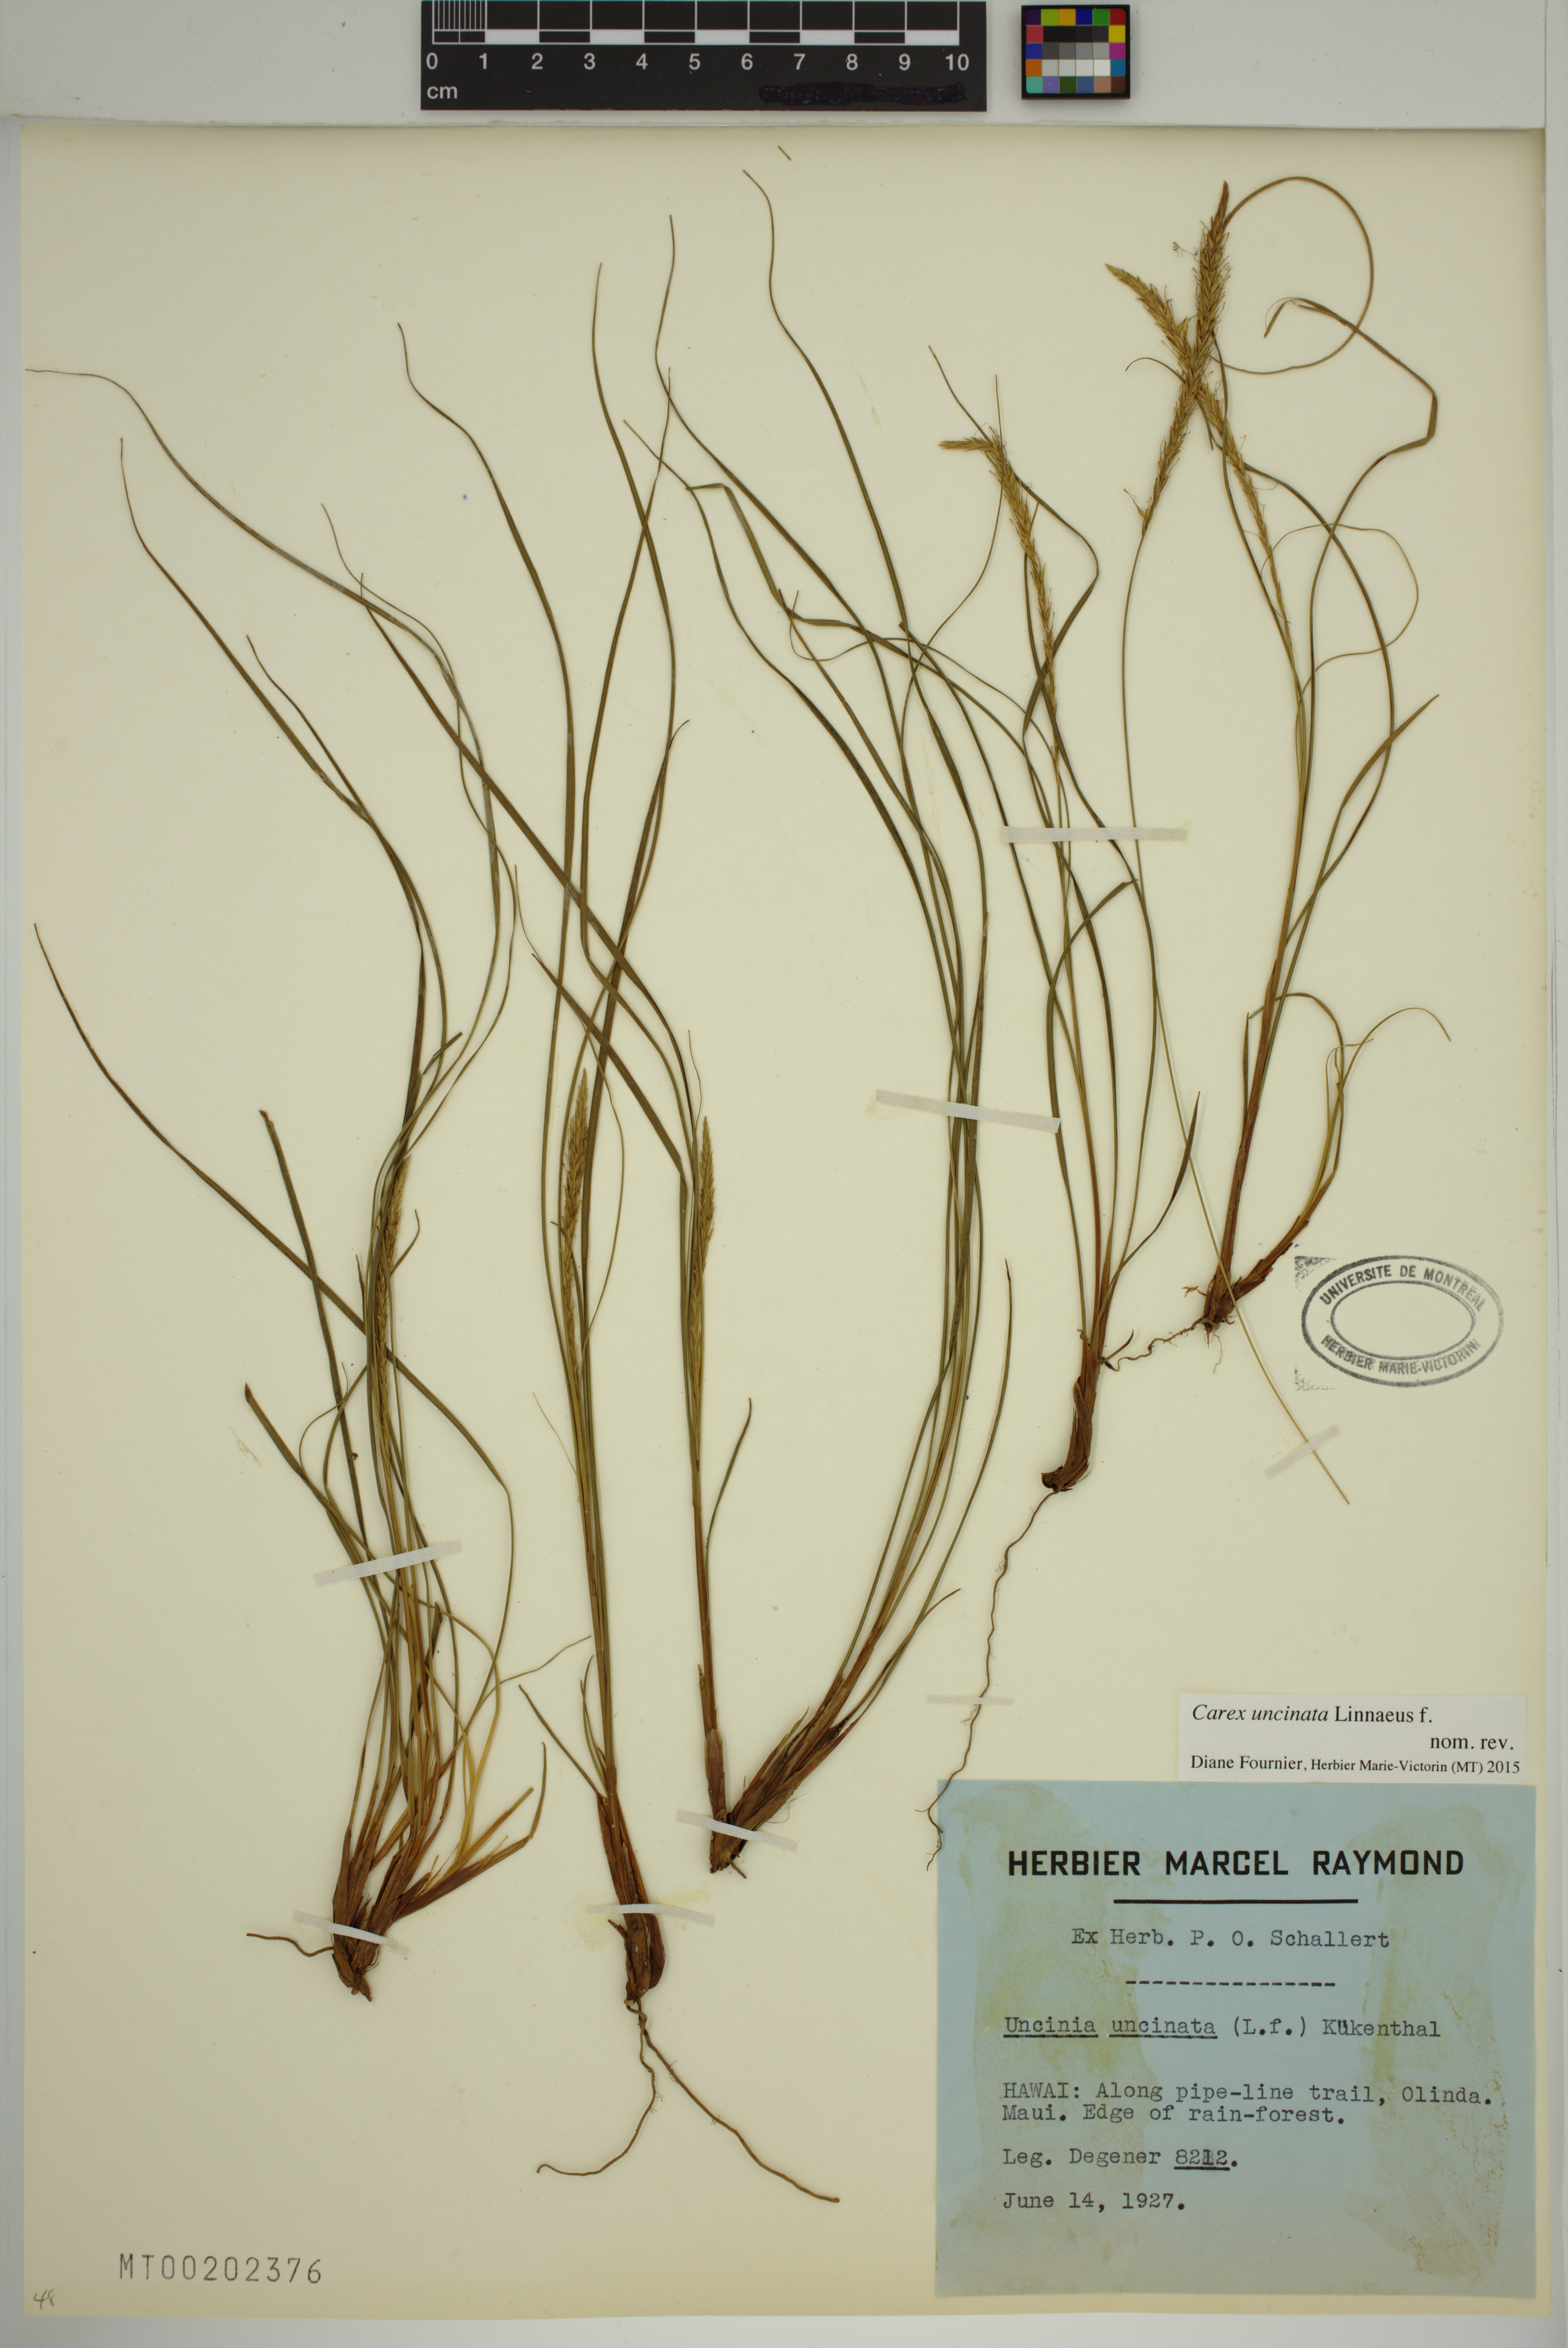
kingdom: Plantae
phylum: Tracheophyta
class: Liliopsida
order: Poales
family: Cyperaceae
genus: Carex
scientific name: Carex uncinata
